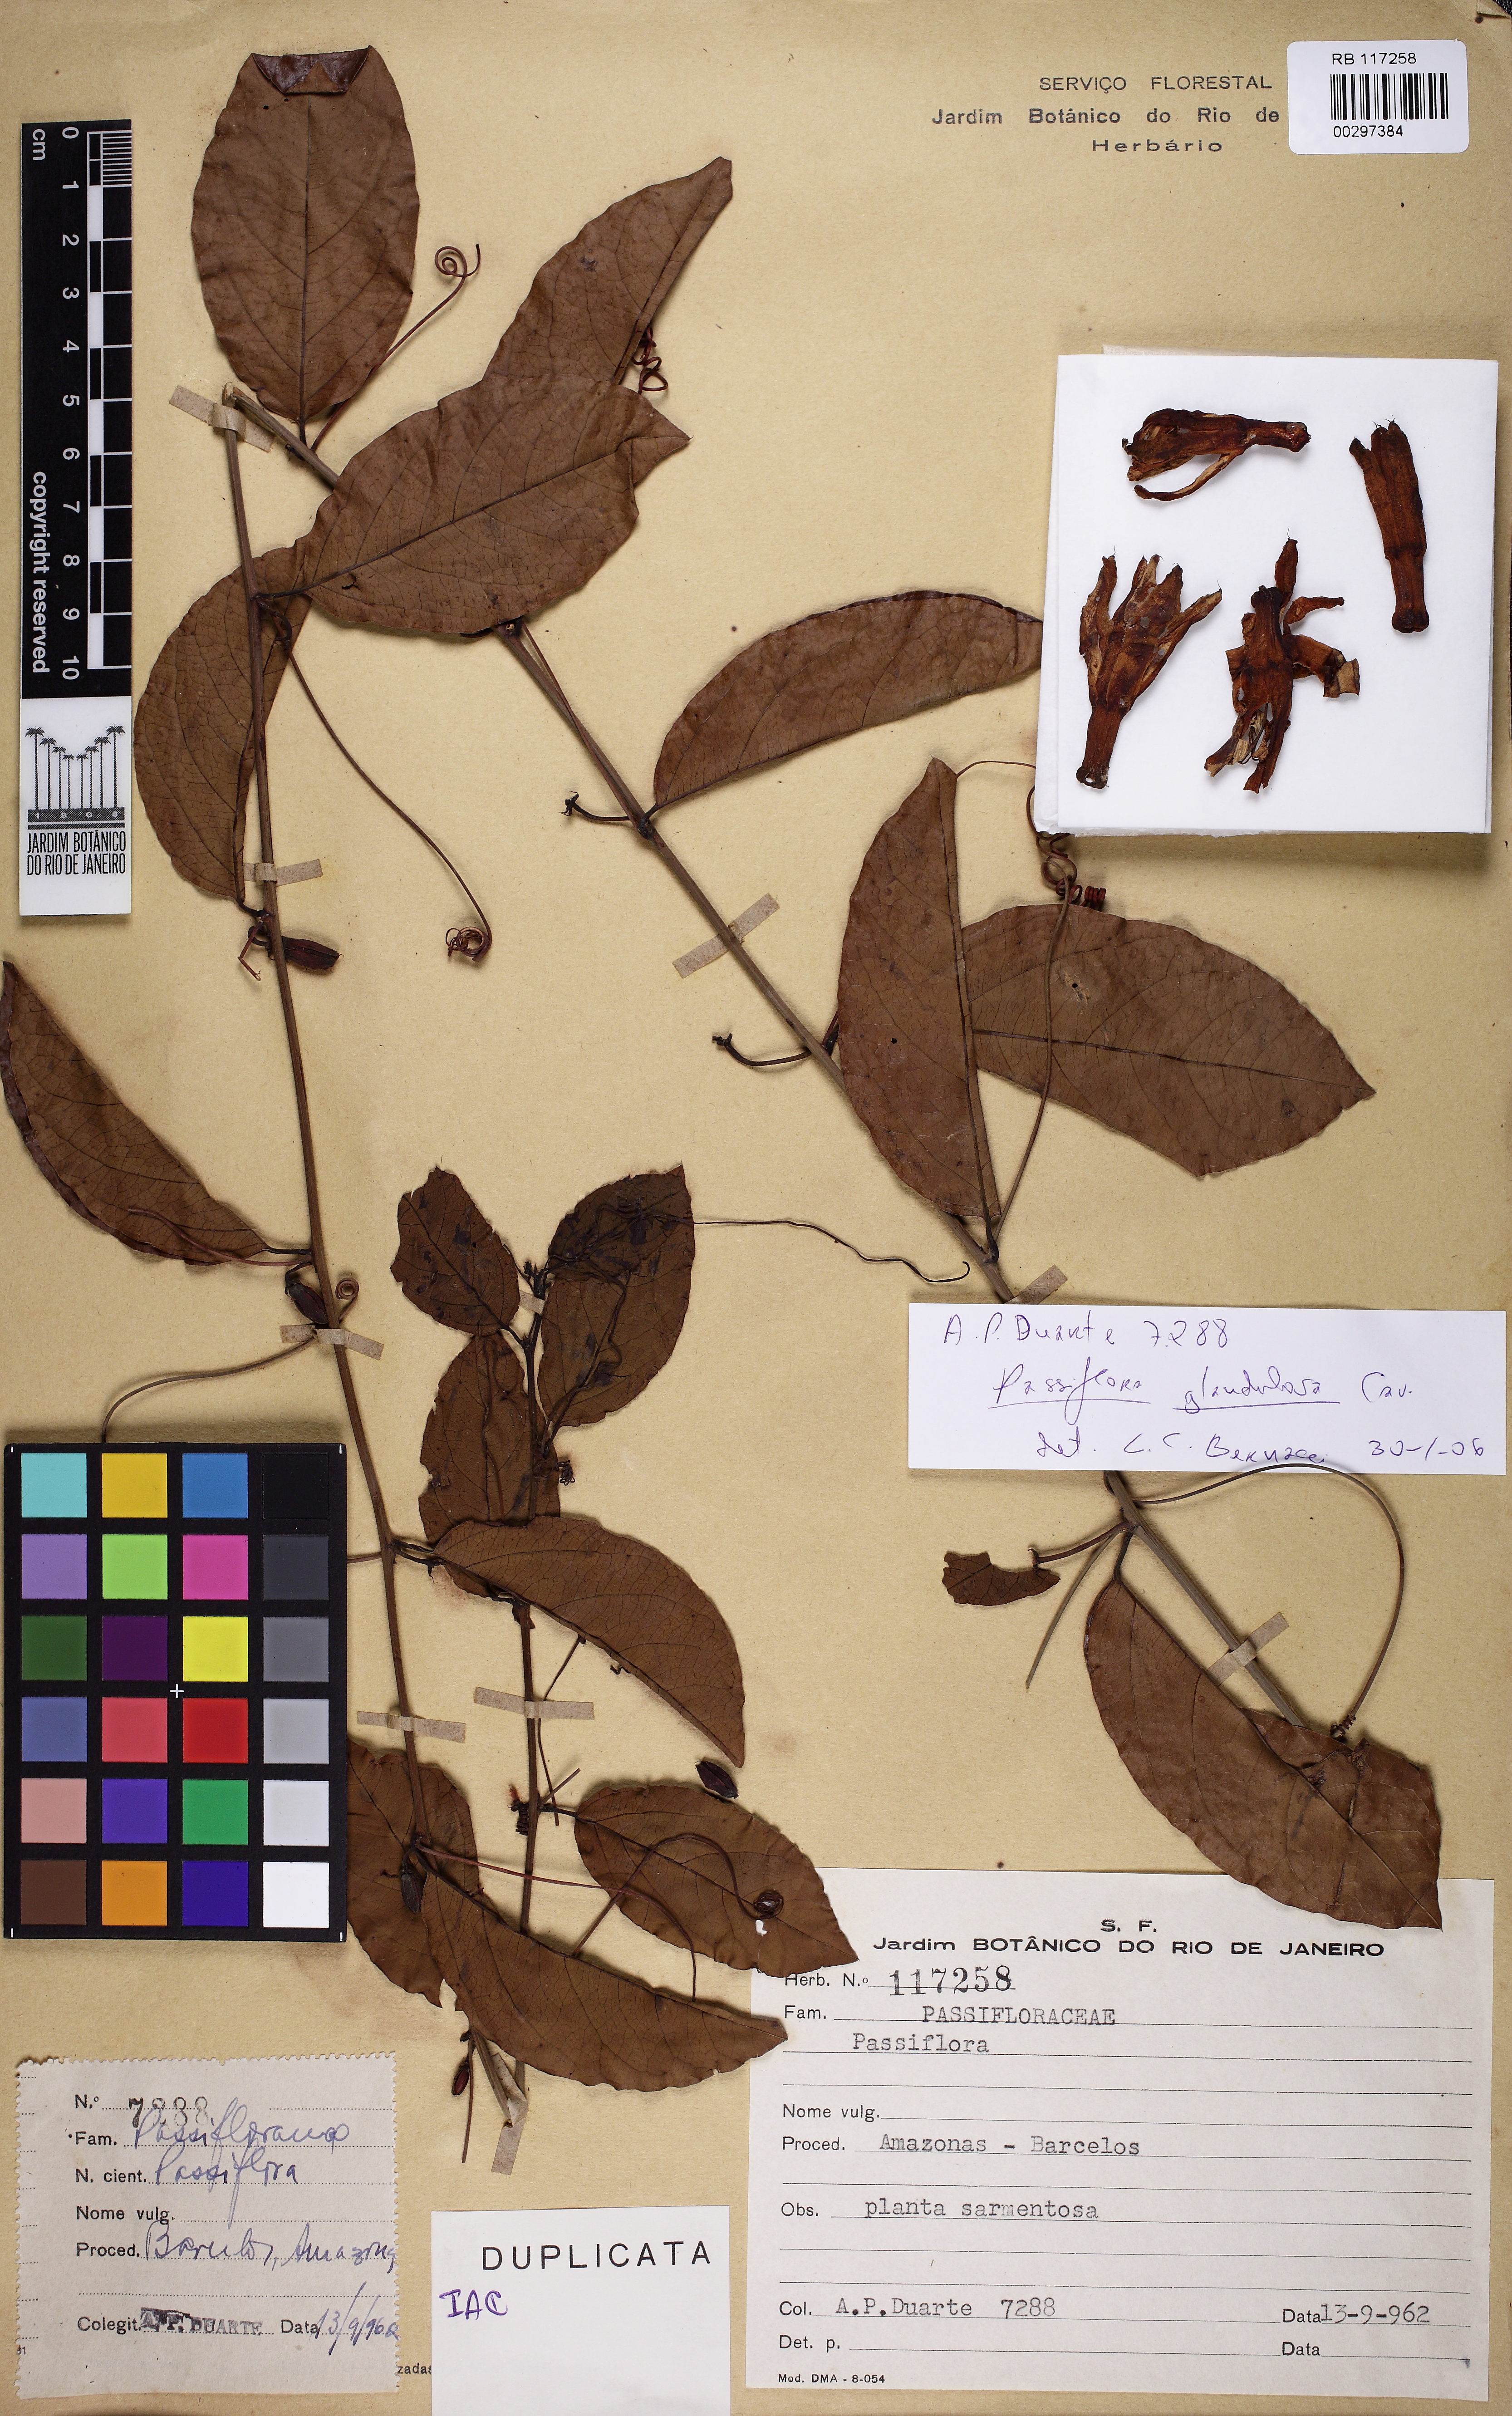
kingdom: Plantae
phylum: Tracheophyta
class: Magnoliopsida
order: Malpighiales
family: Passifloraceae
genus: Passiflora
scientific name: Passiflora glandulosa
